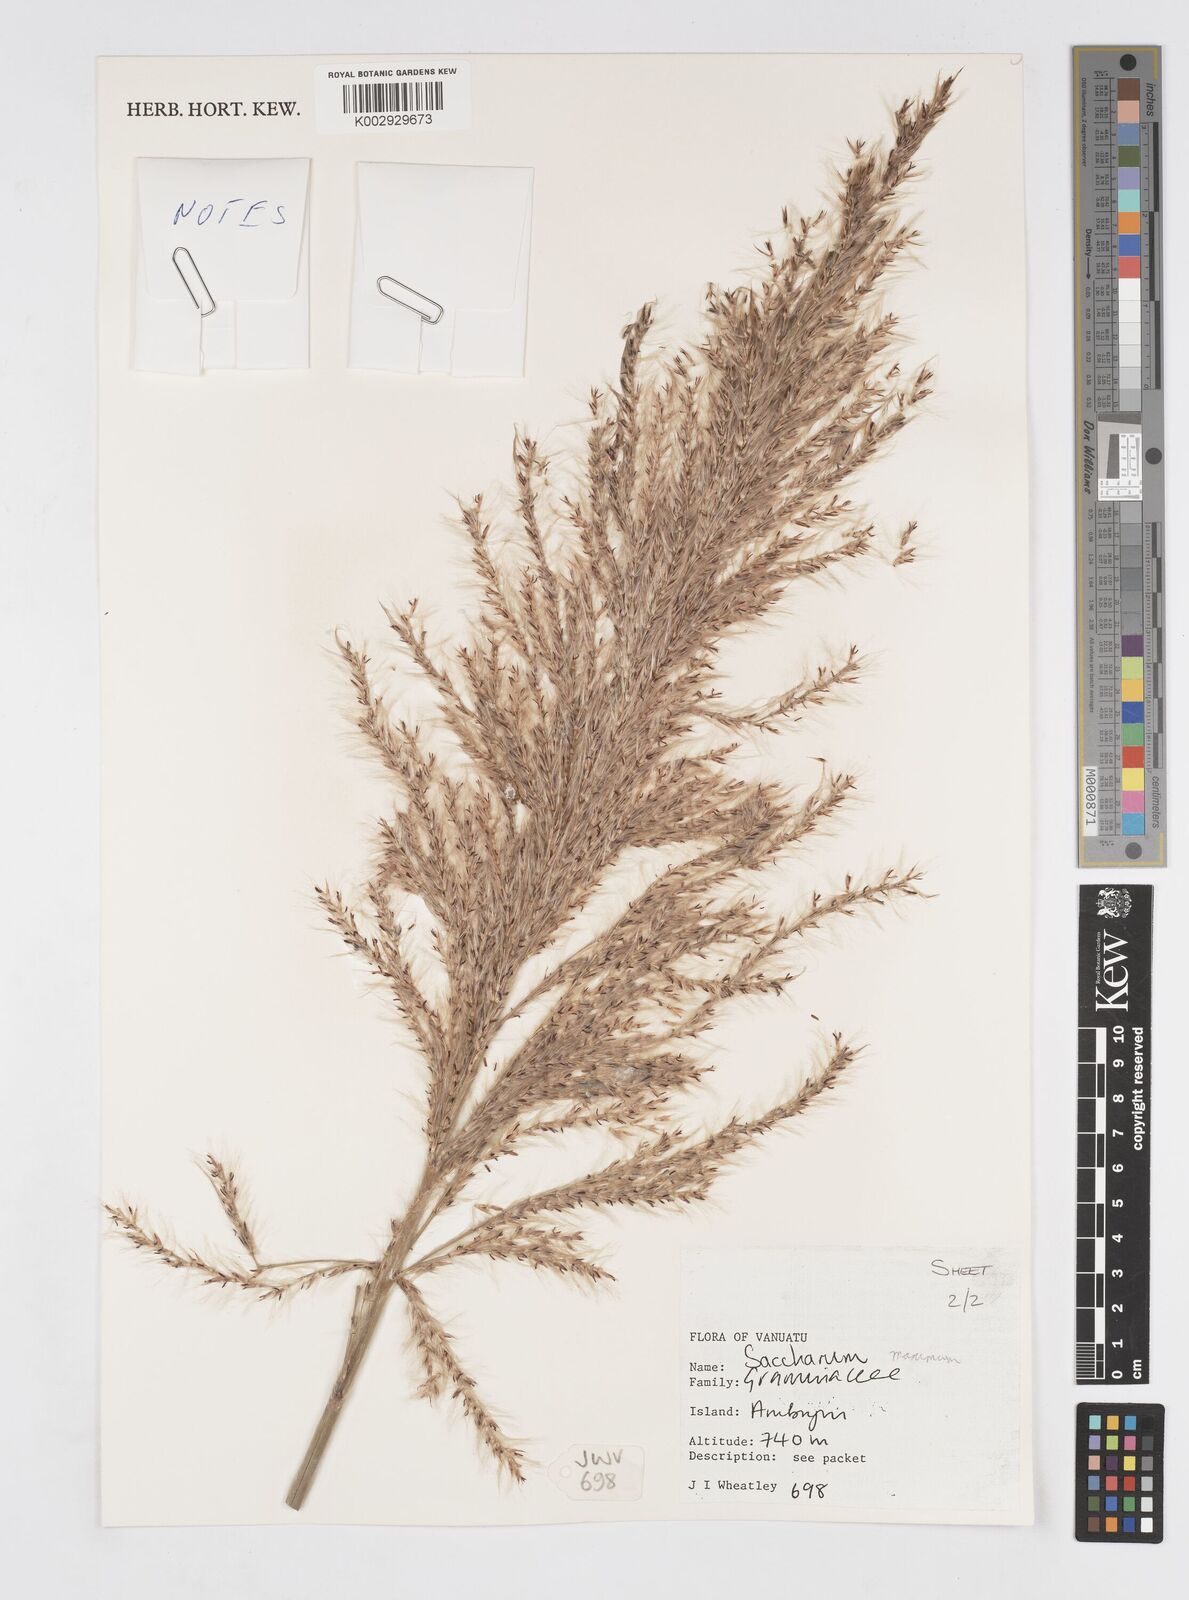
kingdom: Plantae
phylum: Tracheophyta
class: Liliopsida
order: Poales
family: Poaceae
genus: Saccharum
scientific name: Saccharum maximum
